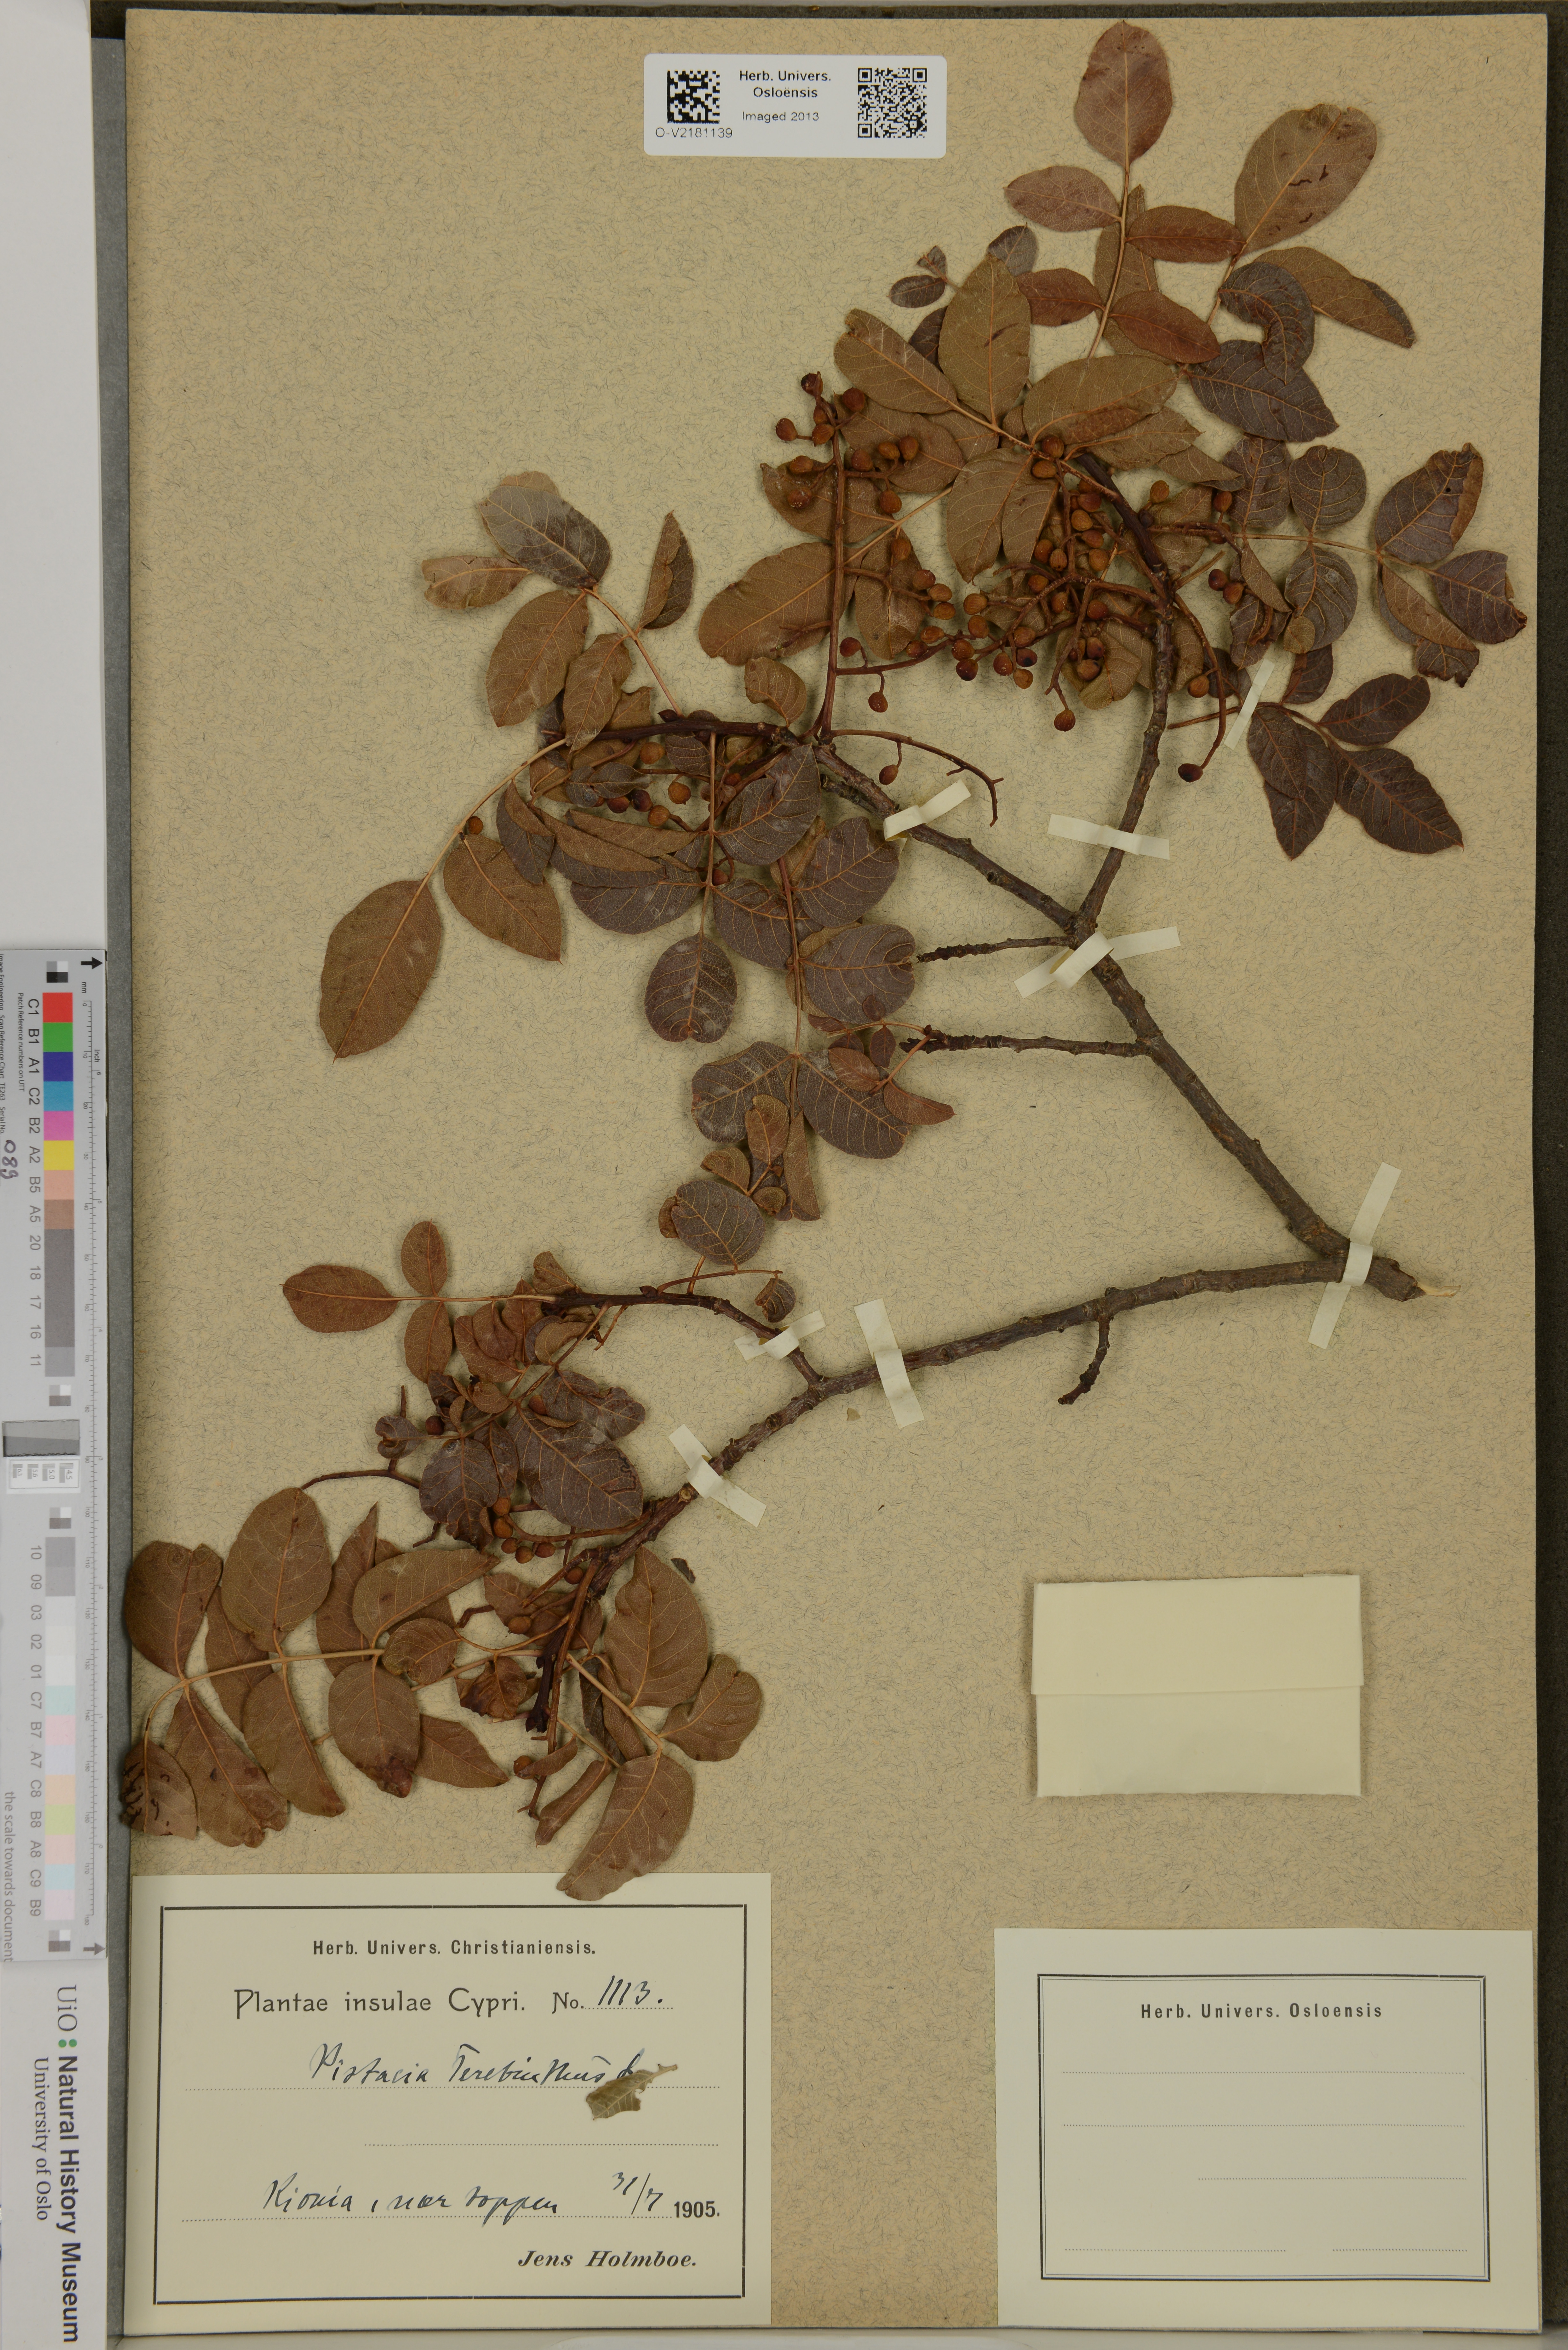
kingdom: Plantae
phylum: Tracheophyta
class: Magnoliopsida
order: Sapindales
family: Anacardiaceae
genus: Pistacia
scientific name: Pistacia terebinthus
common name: Terebinth
